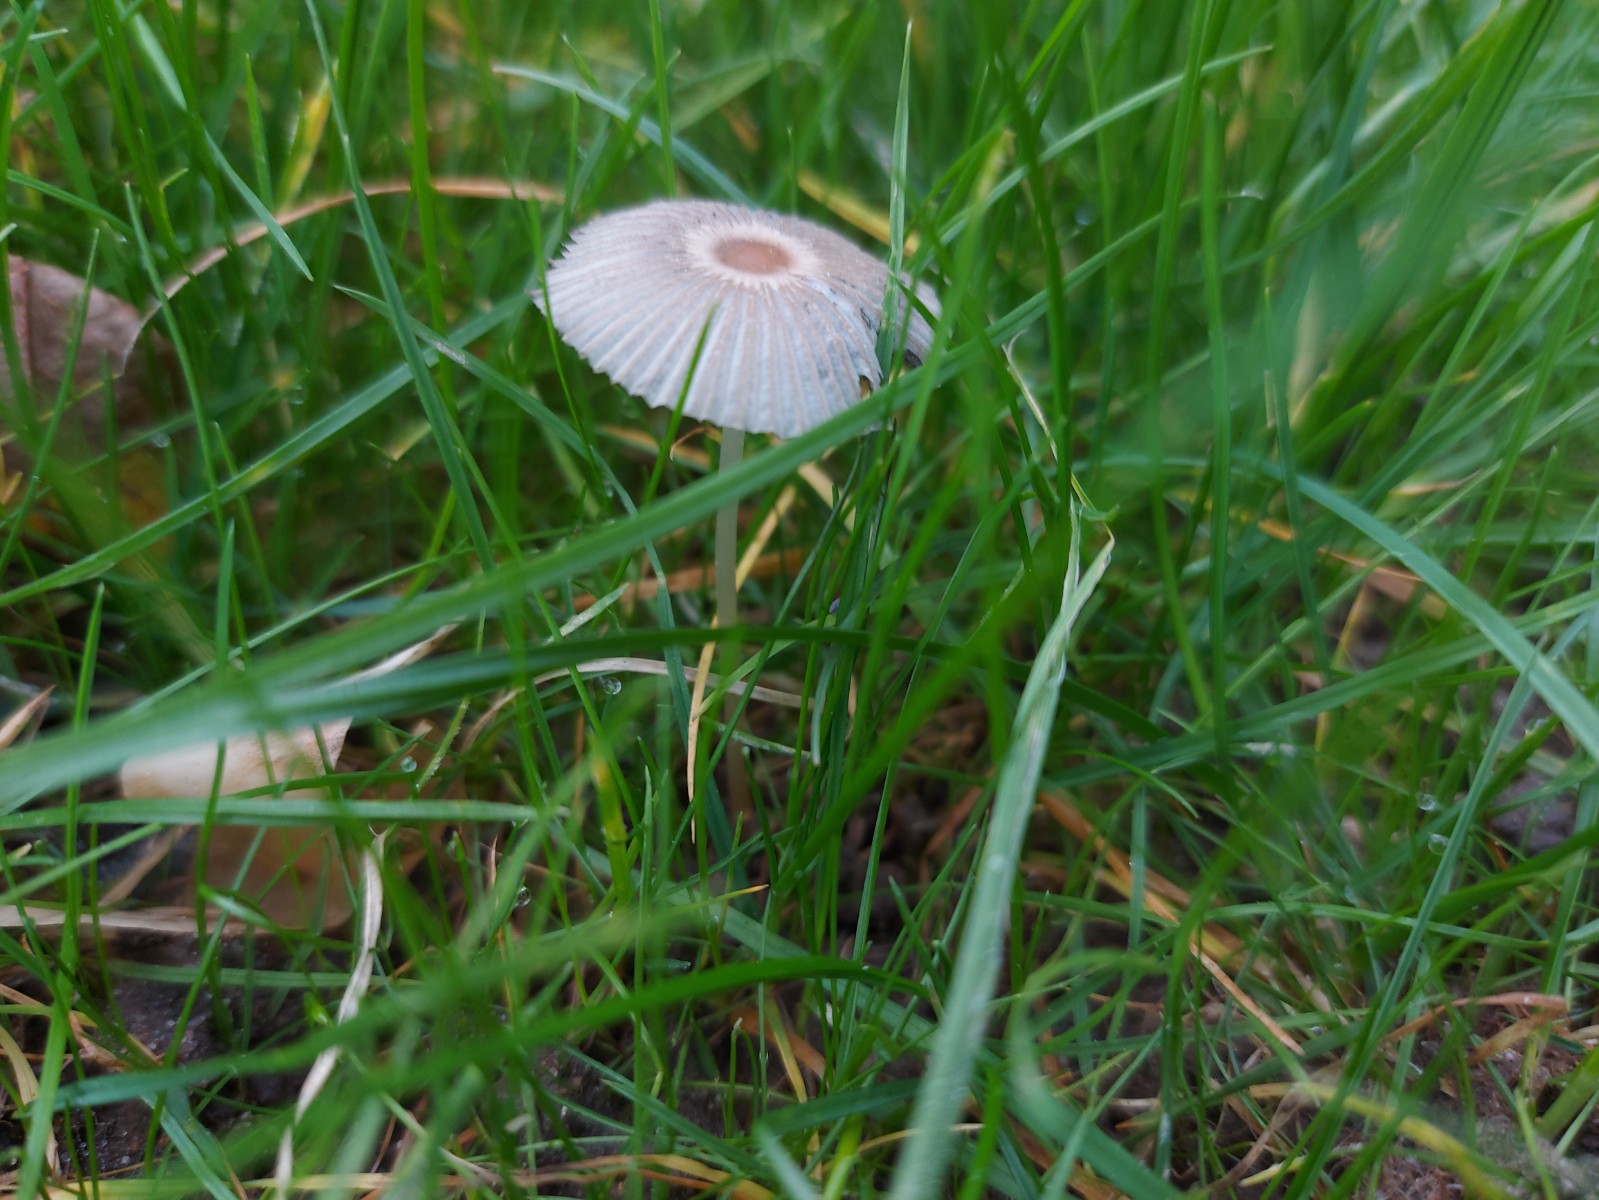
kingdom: Fungi
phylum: Basidiomycota
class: Agaricomycetes
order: Agaricales
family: Psathyrellaceae
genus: Parasola
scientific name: Parasola
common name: hjulhat
